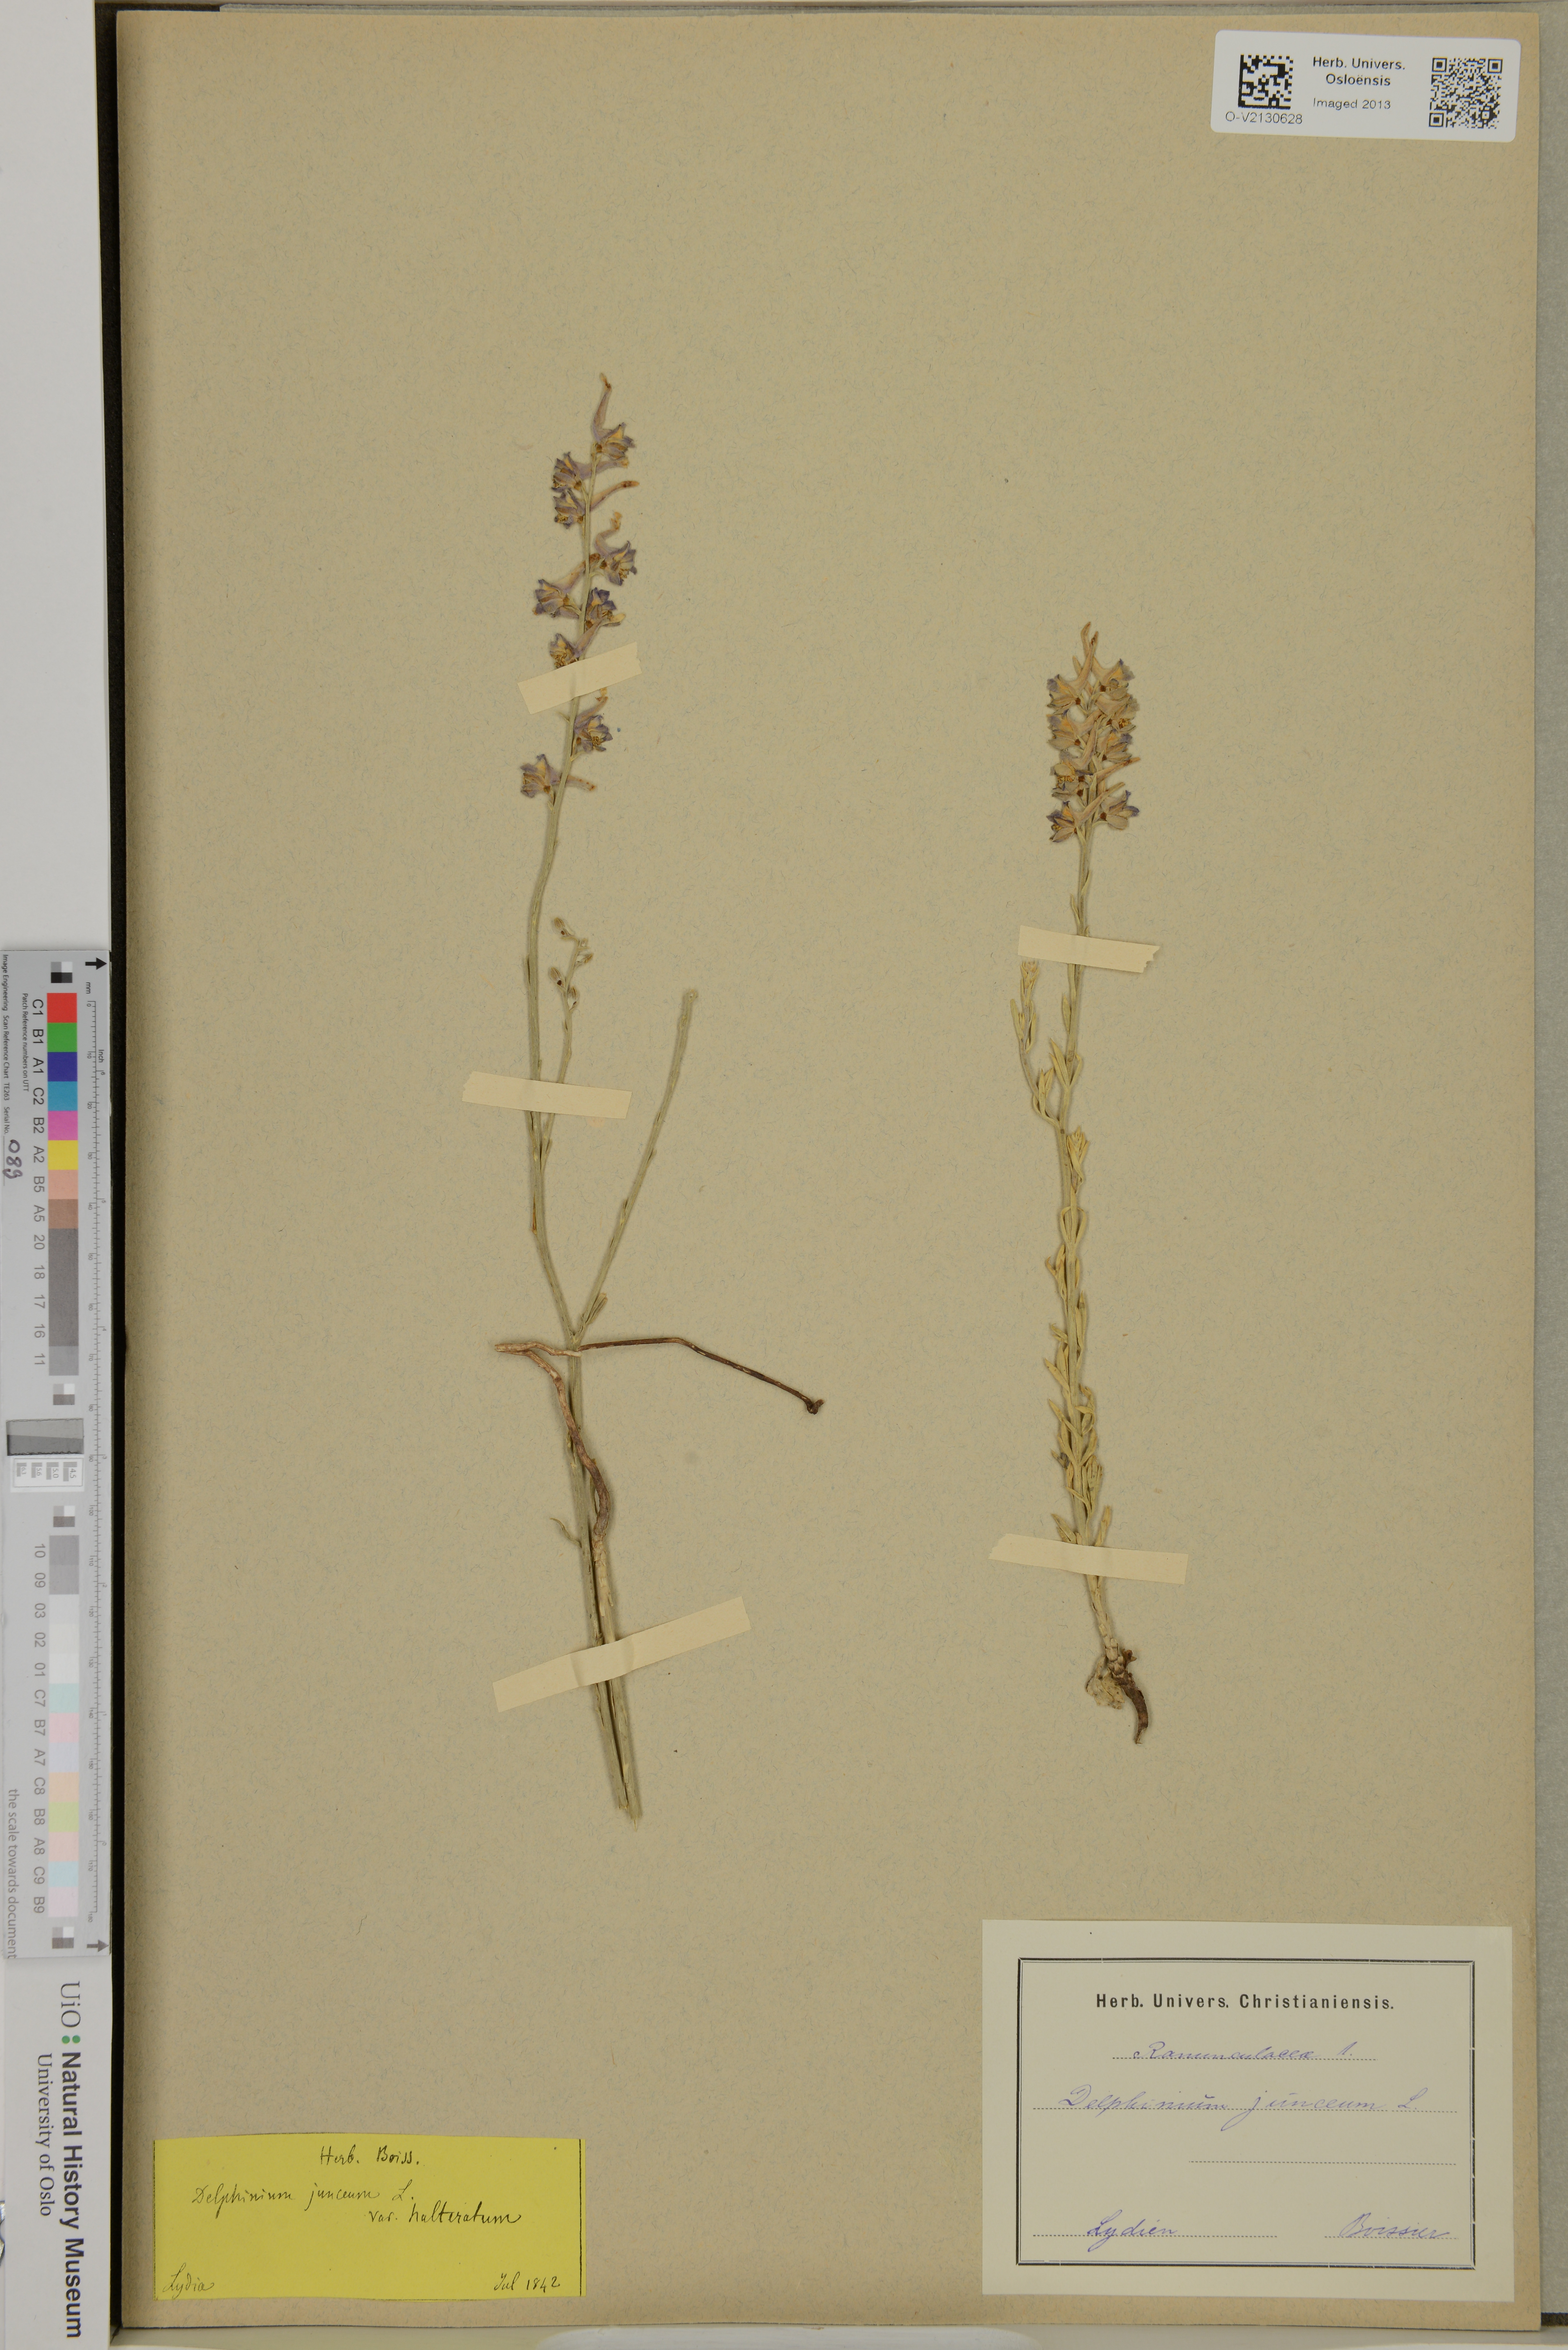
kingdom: Plantae
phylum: Tracheophyta
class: Magnoliopsida
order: Ranunculales
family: Ranunculaceae
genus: Delphinium
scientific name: Delphinium peregrinum
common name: Violet larkspur
